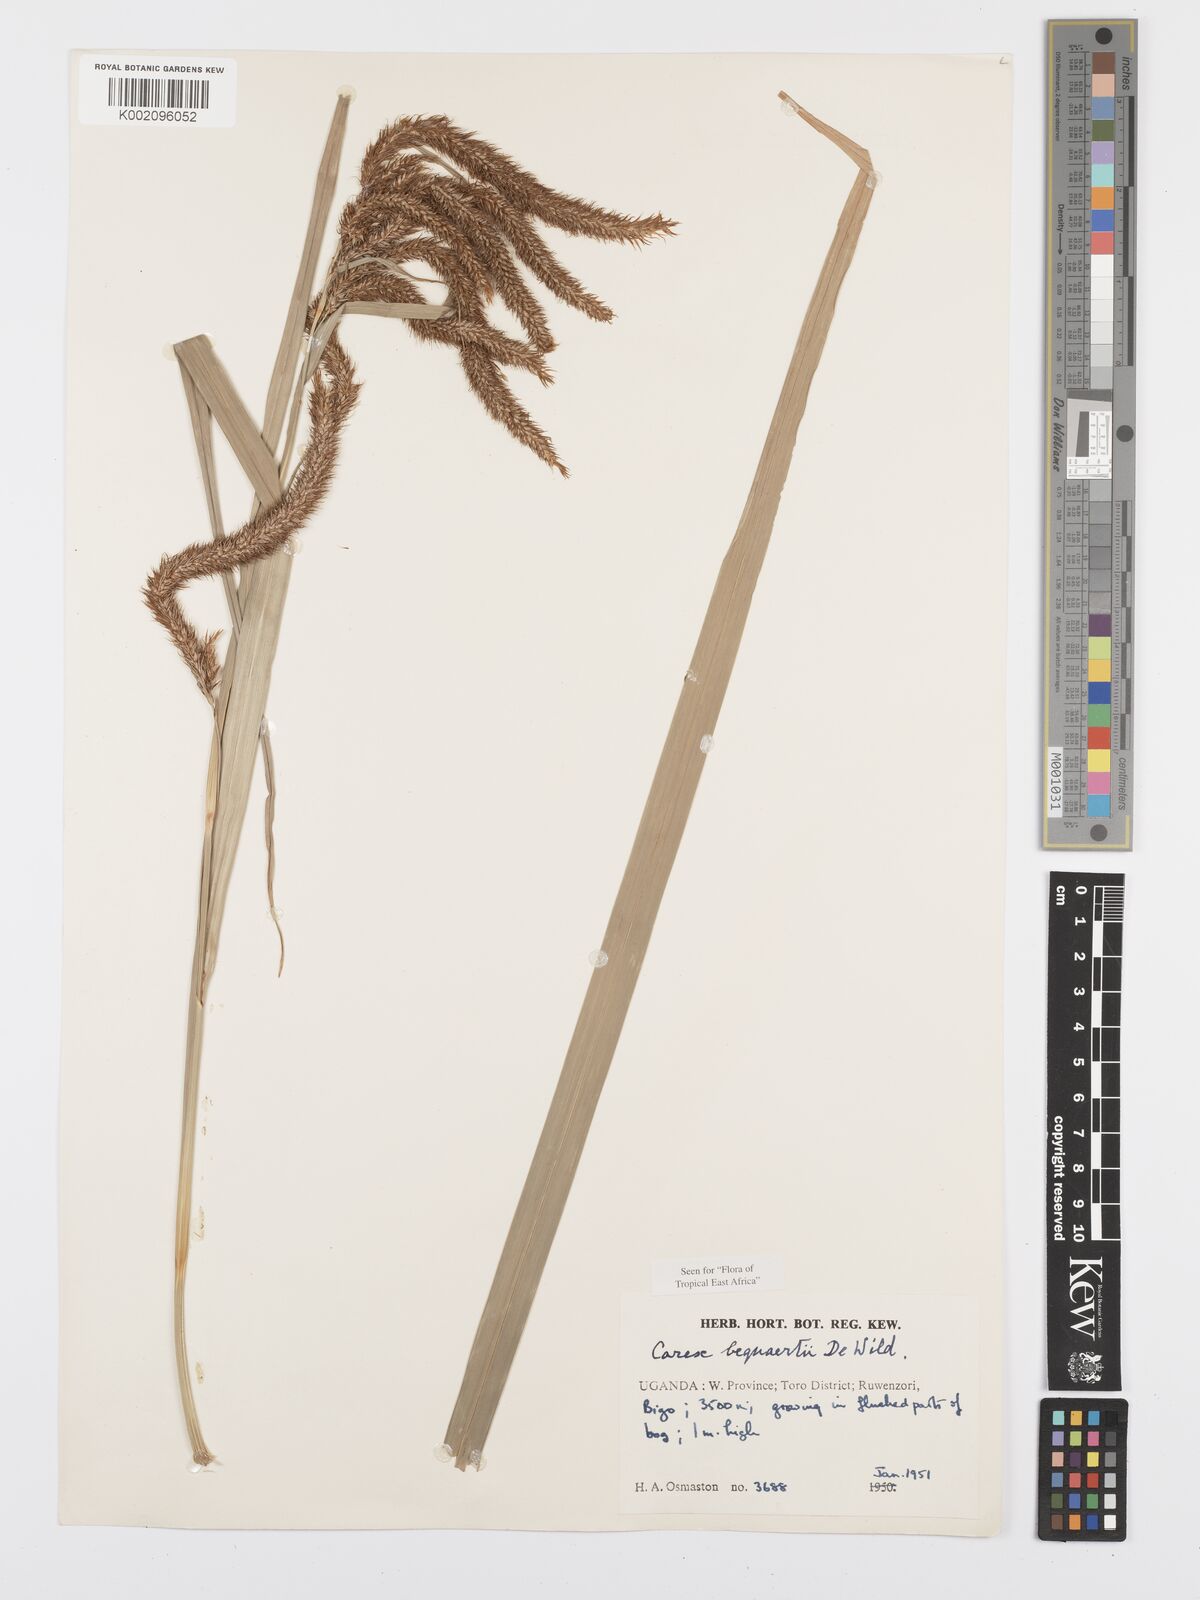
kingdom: Plantae
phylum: Tracheophyta
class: Liliopsida
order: Poales
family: Cyperaceae
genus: Carex
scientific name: Carex bequaertii
